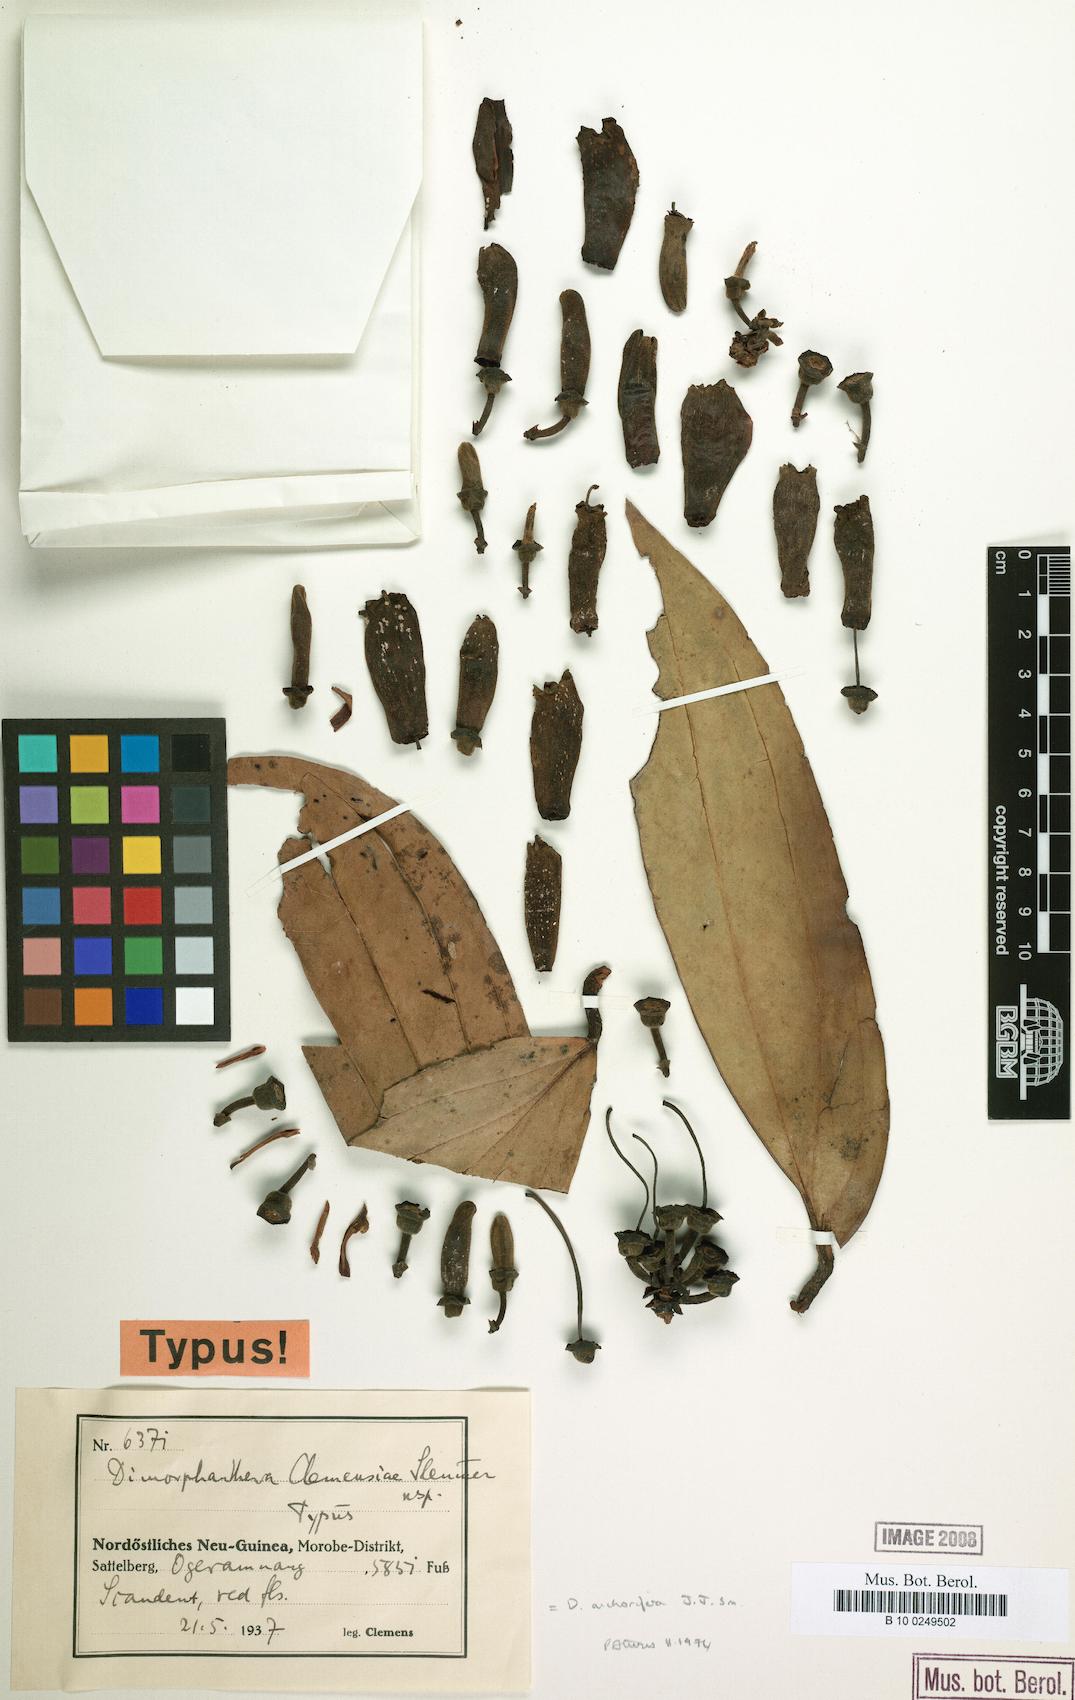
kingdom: Plantae
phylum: Tracheophyta
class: Magnoliopsida
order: Ericales
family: Ericaceae
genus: Dimorphanthera
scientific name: Dimorphanthera anchorifera
